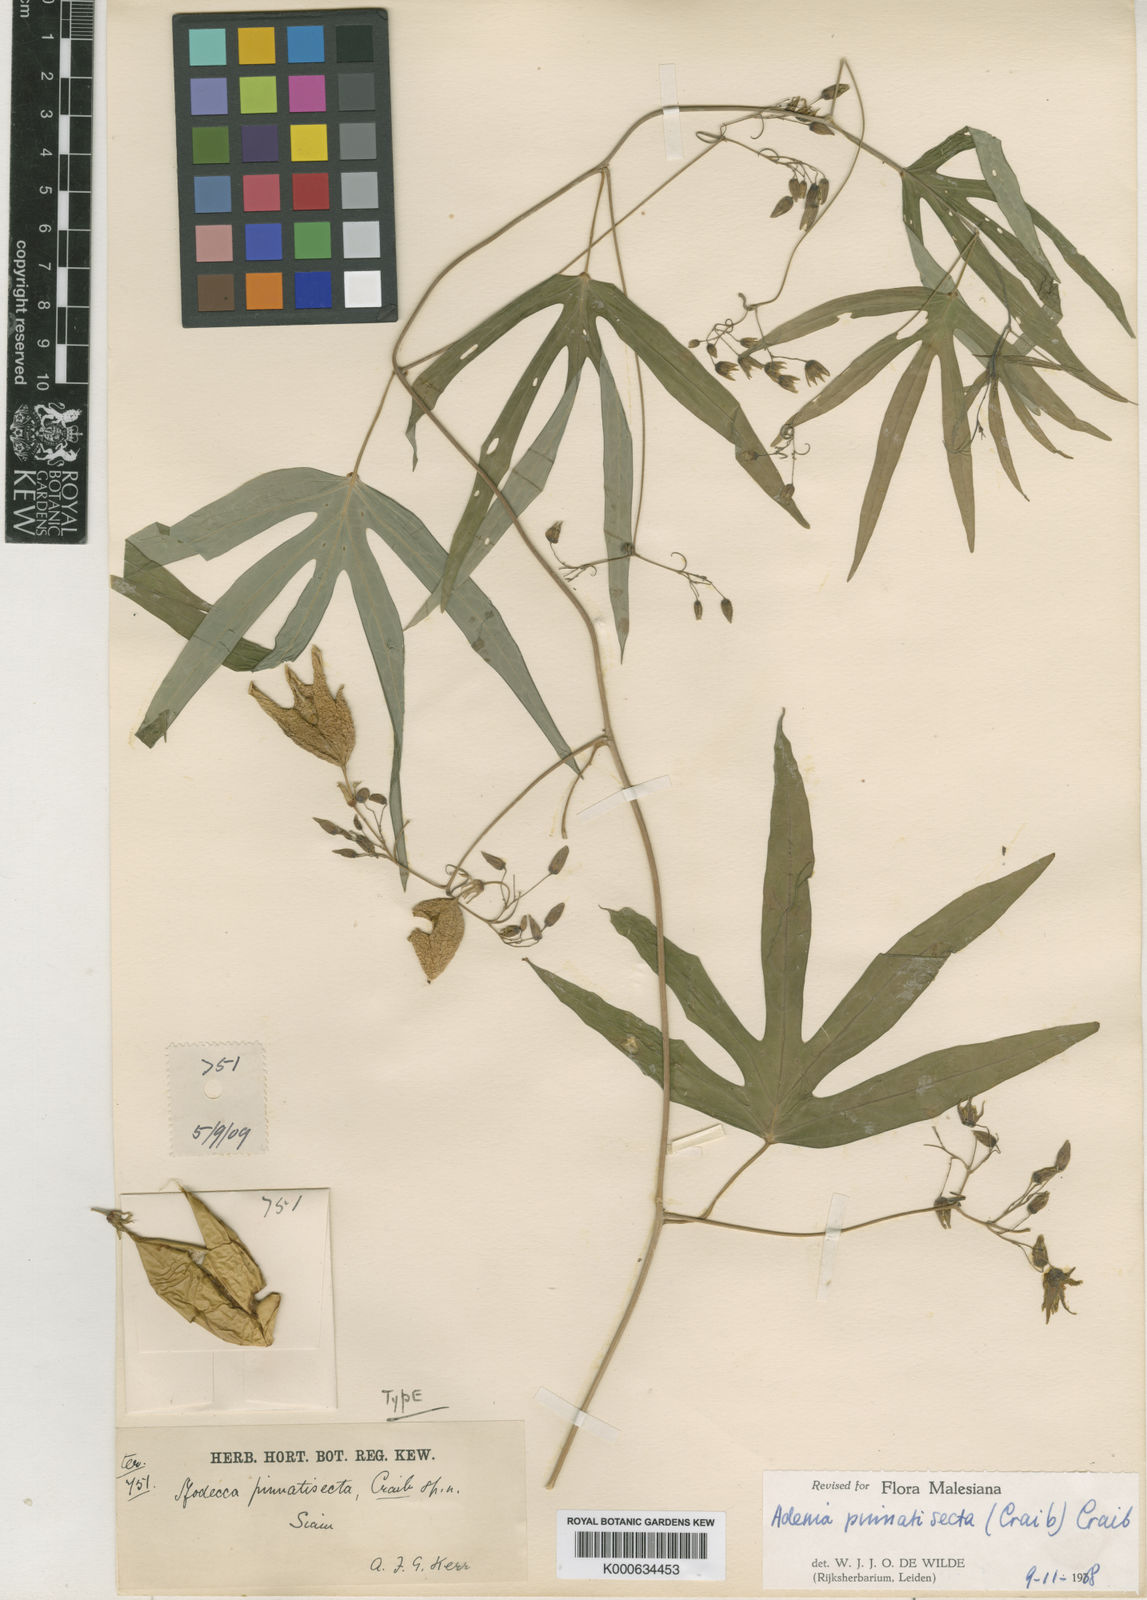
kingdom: Plantae
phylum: Tracheophyta
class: Magnoliopsida
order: Malpighiales
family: Passifloraceae
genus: Adenia
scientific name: Adenia pinnatisecta
